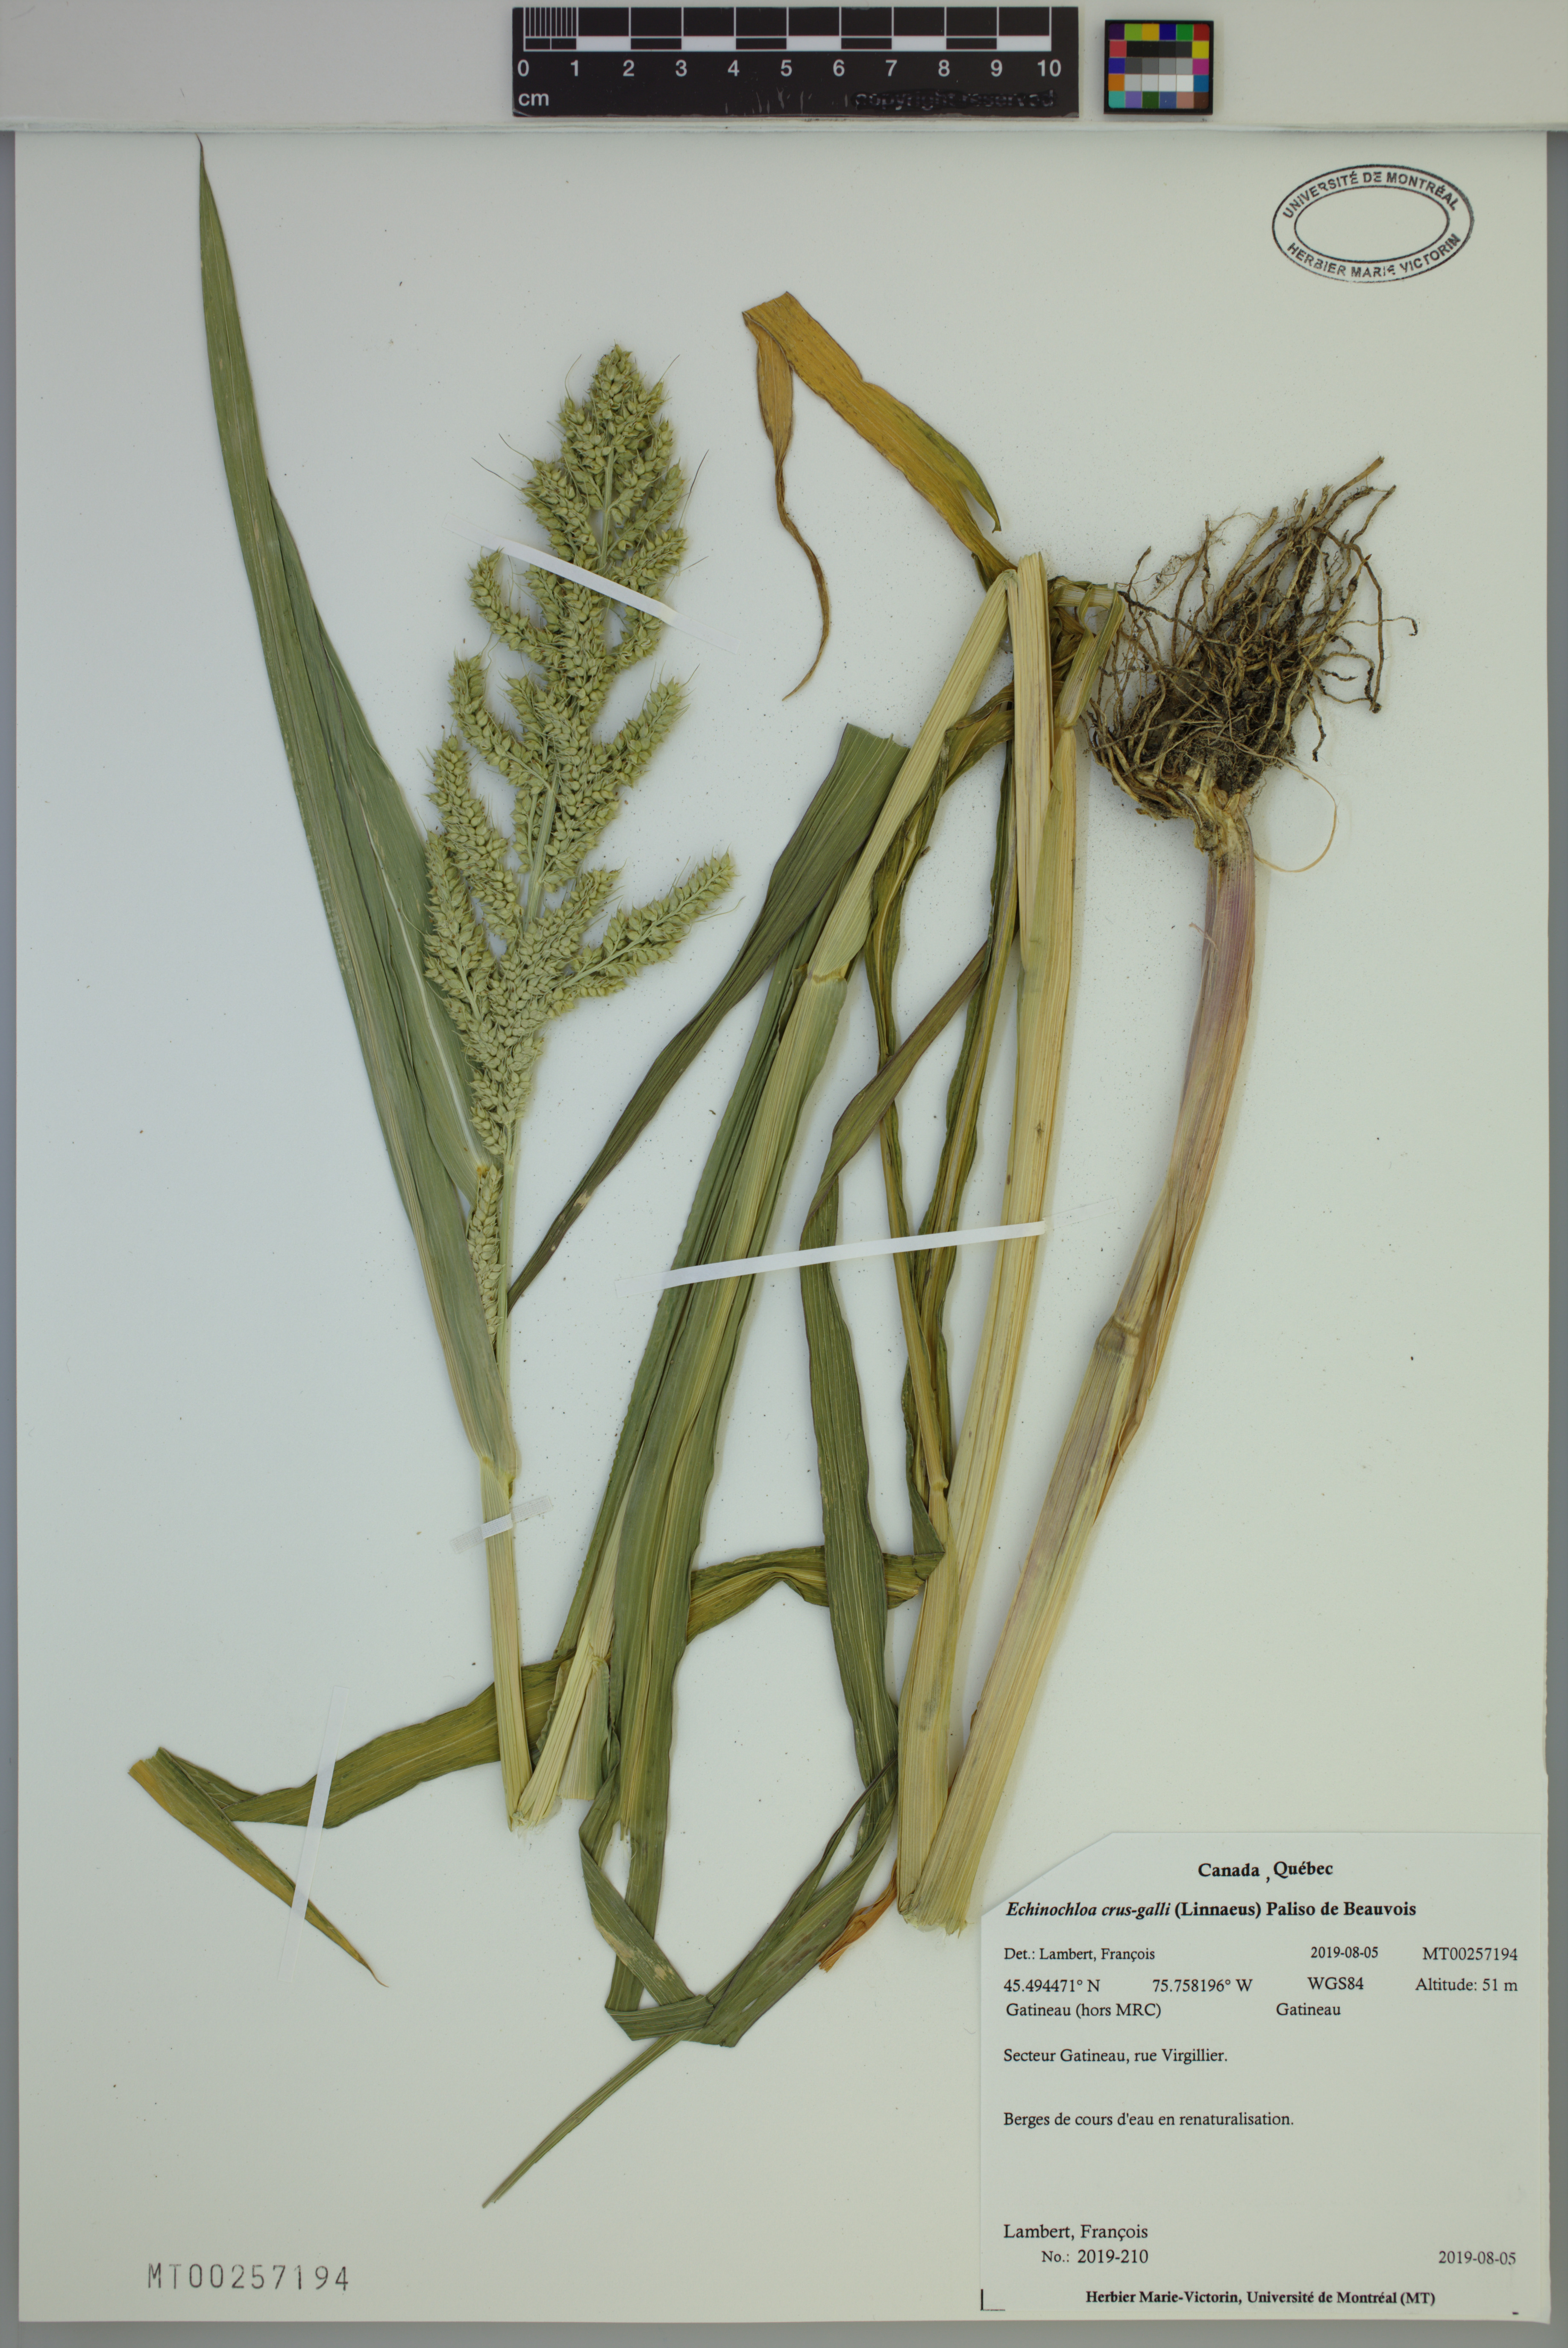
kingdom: Plantae
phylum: Tracheophyta
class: Liliopsida
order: Poales
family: Poaceae
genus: Echinochloa
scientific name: Echinochloa crus-galli
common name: Cockspur
